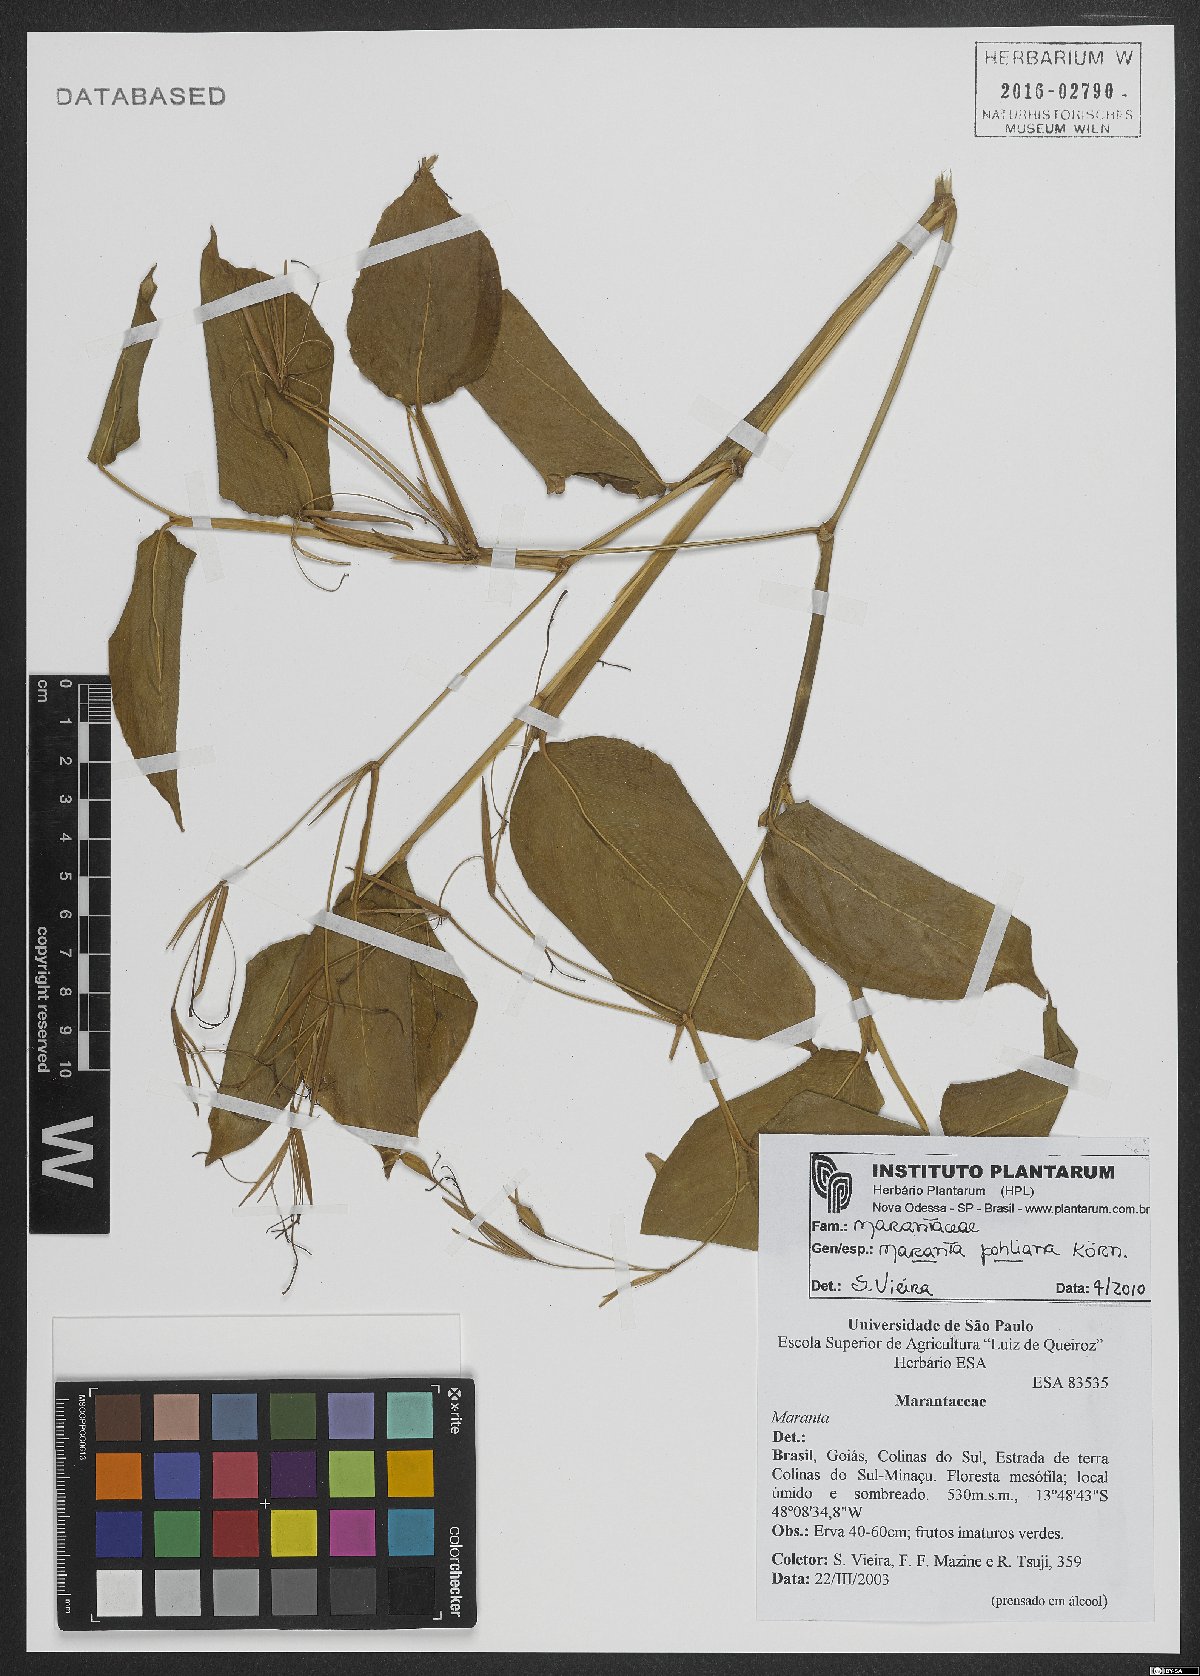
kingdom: Plantae
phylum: Tracheophyta
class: Liliopsida
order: Zingiberales
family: Marantaceae
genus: Maranta
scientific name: Maranta pohliana
